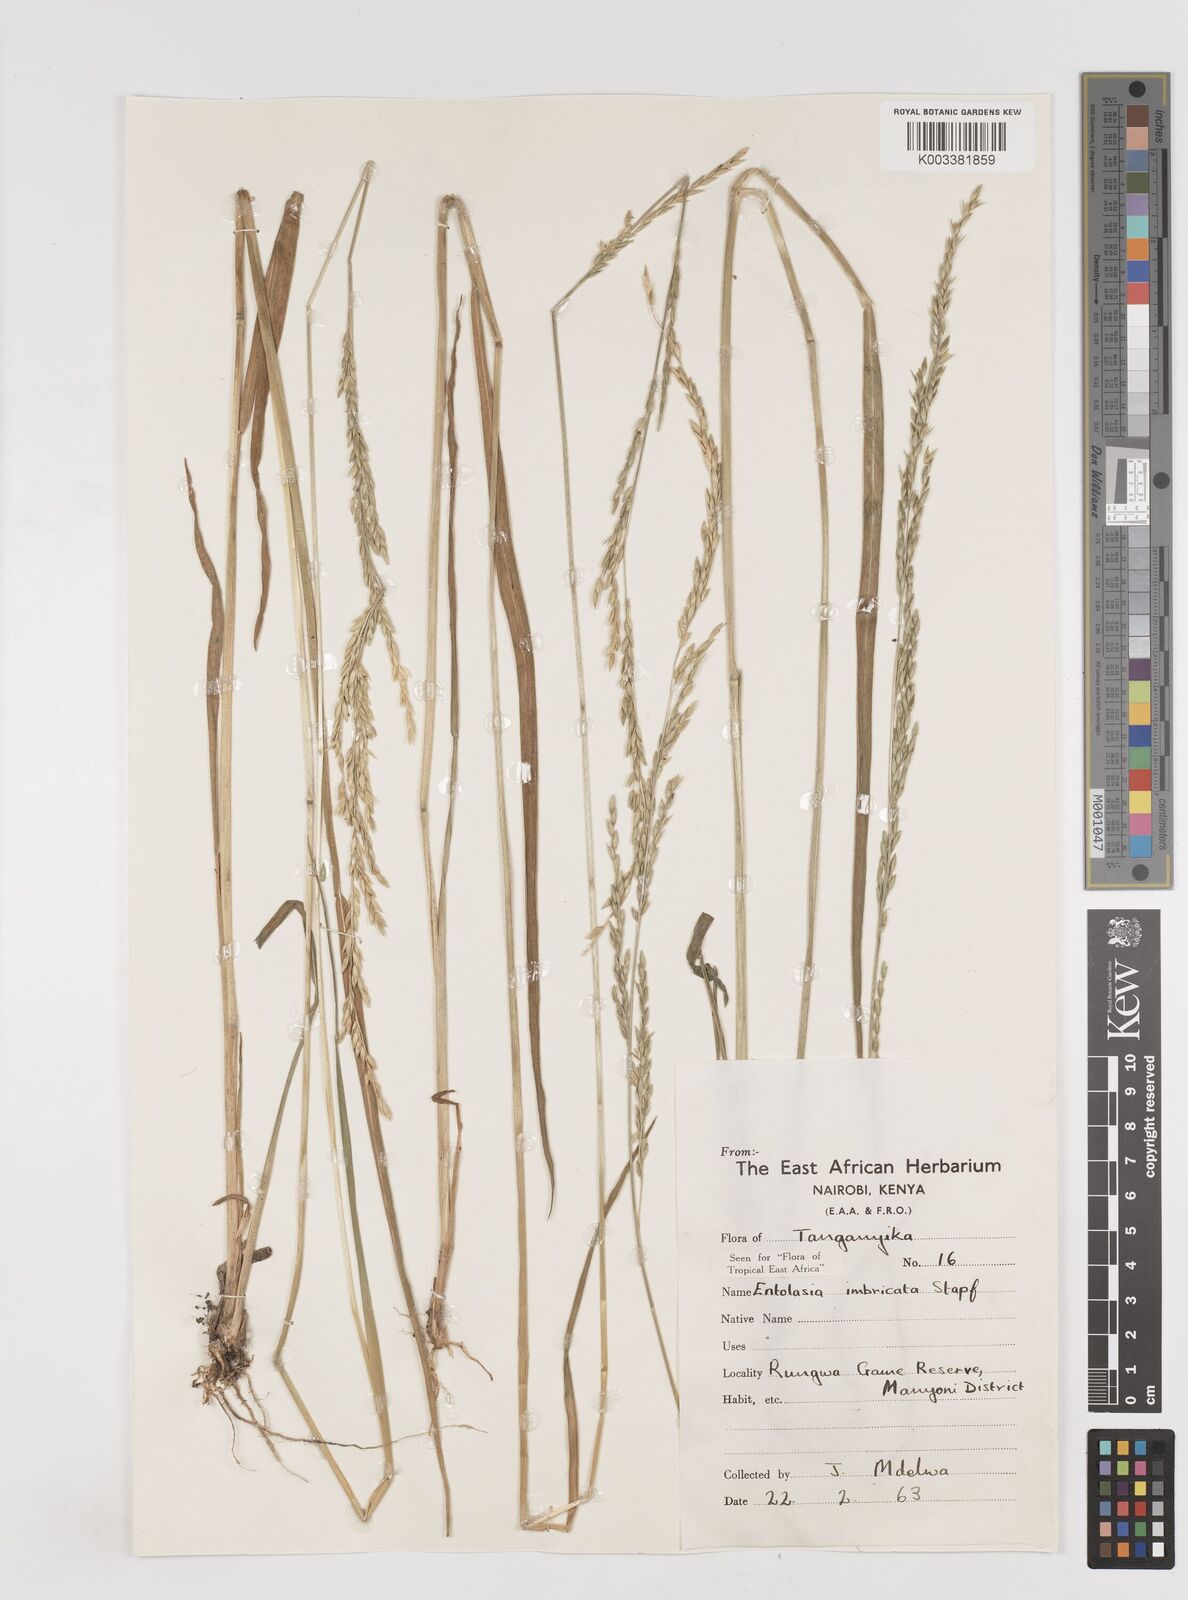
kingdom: Plantae
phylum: Tracheophyta
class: Liliopsida
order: Poales
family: Poaceae
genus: Entolasia
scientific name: Entolasia imbricata
